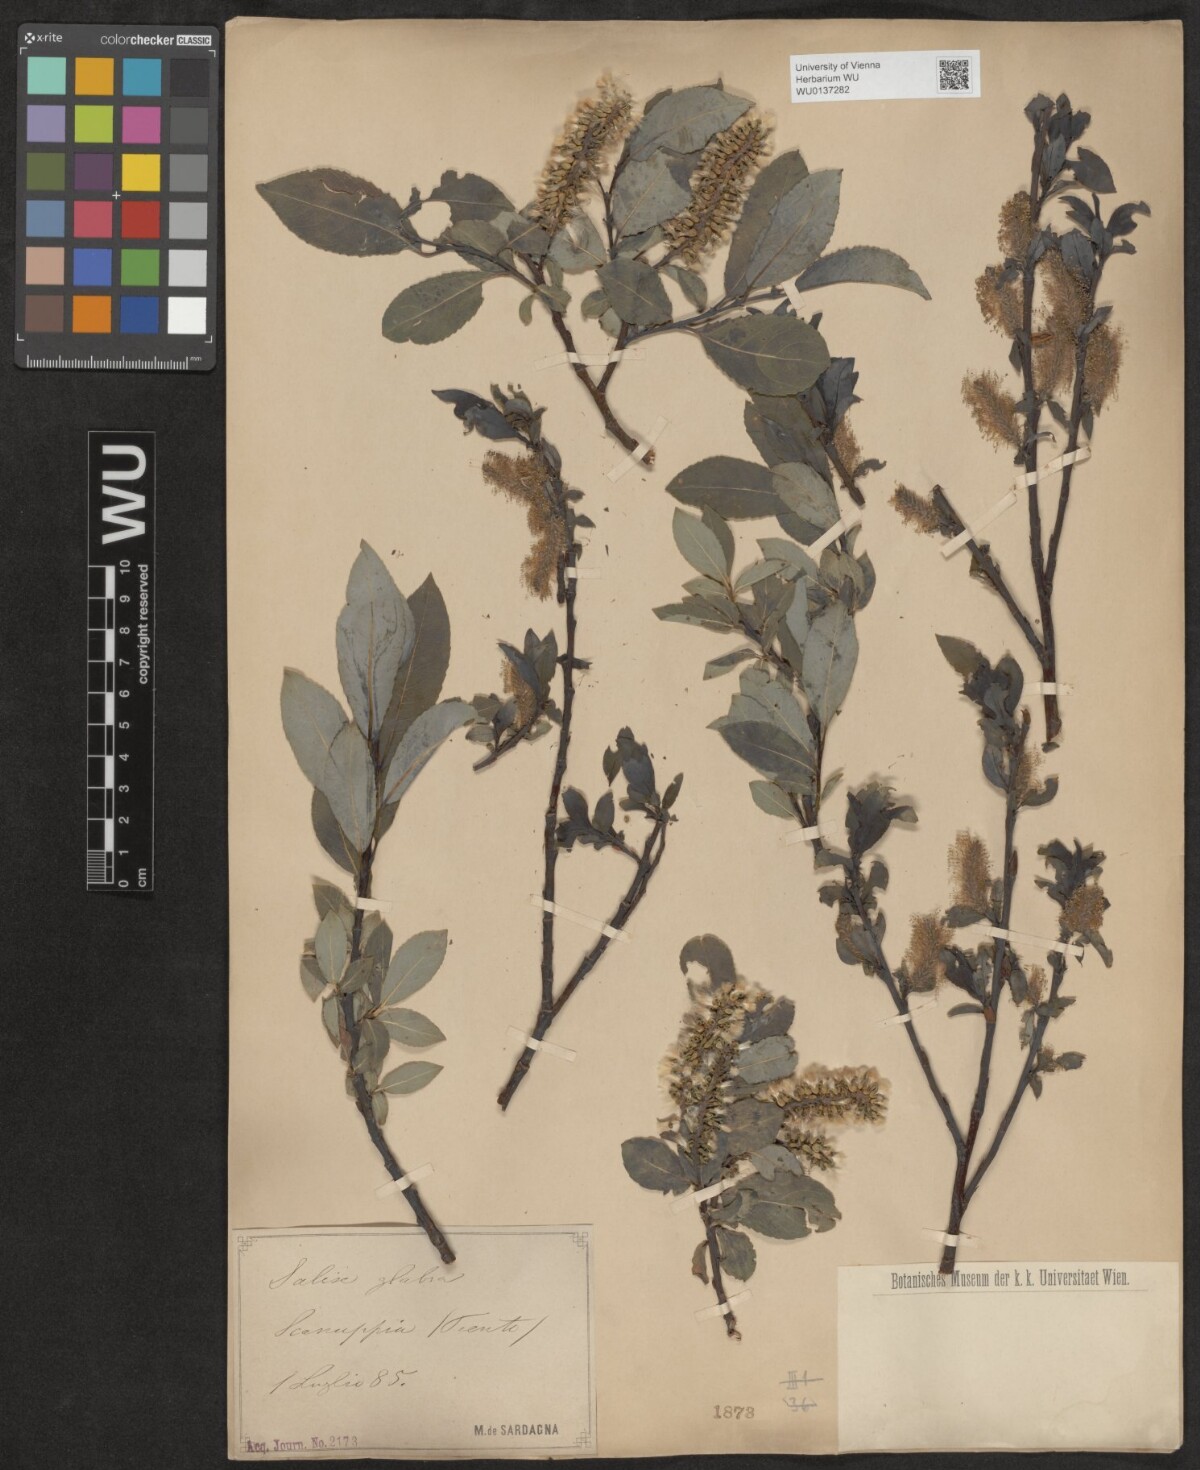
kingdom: Plantae
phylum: Tracheophyta
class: Magnoliopsida
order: Malpighiales
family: Salicaceae
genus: Salix
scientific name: Salix glabra
